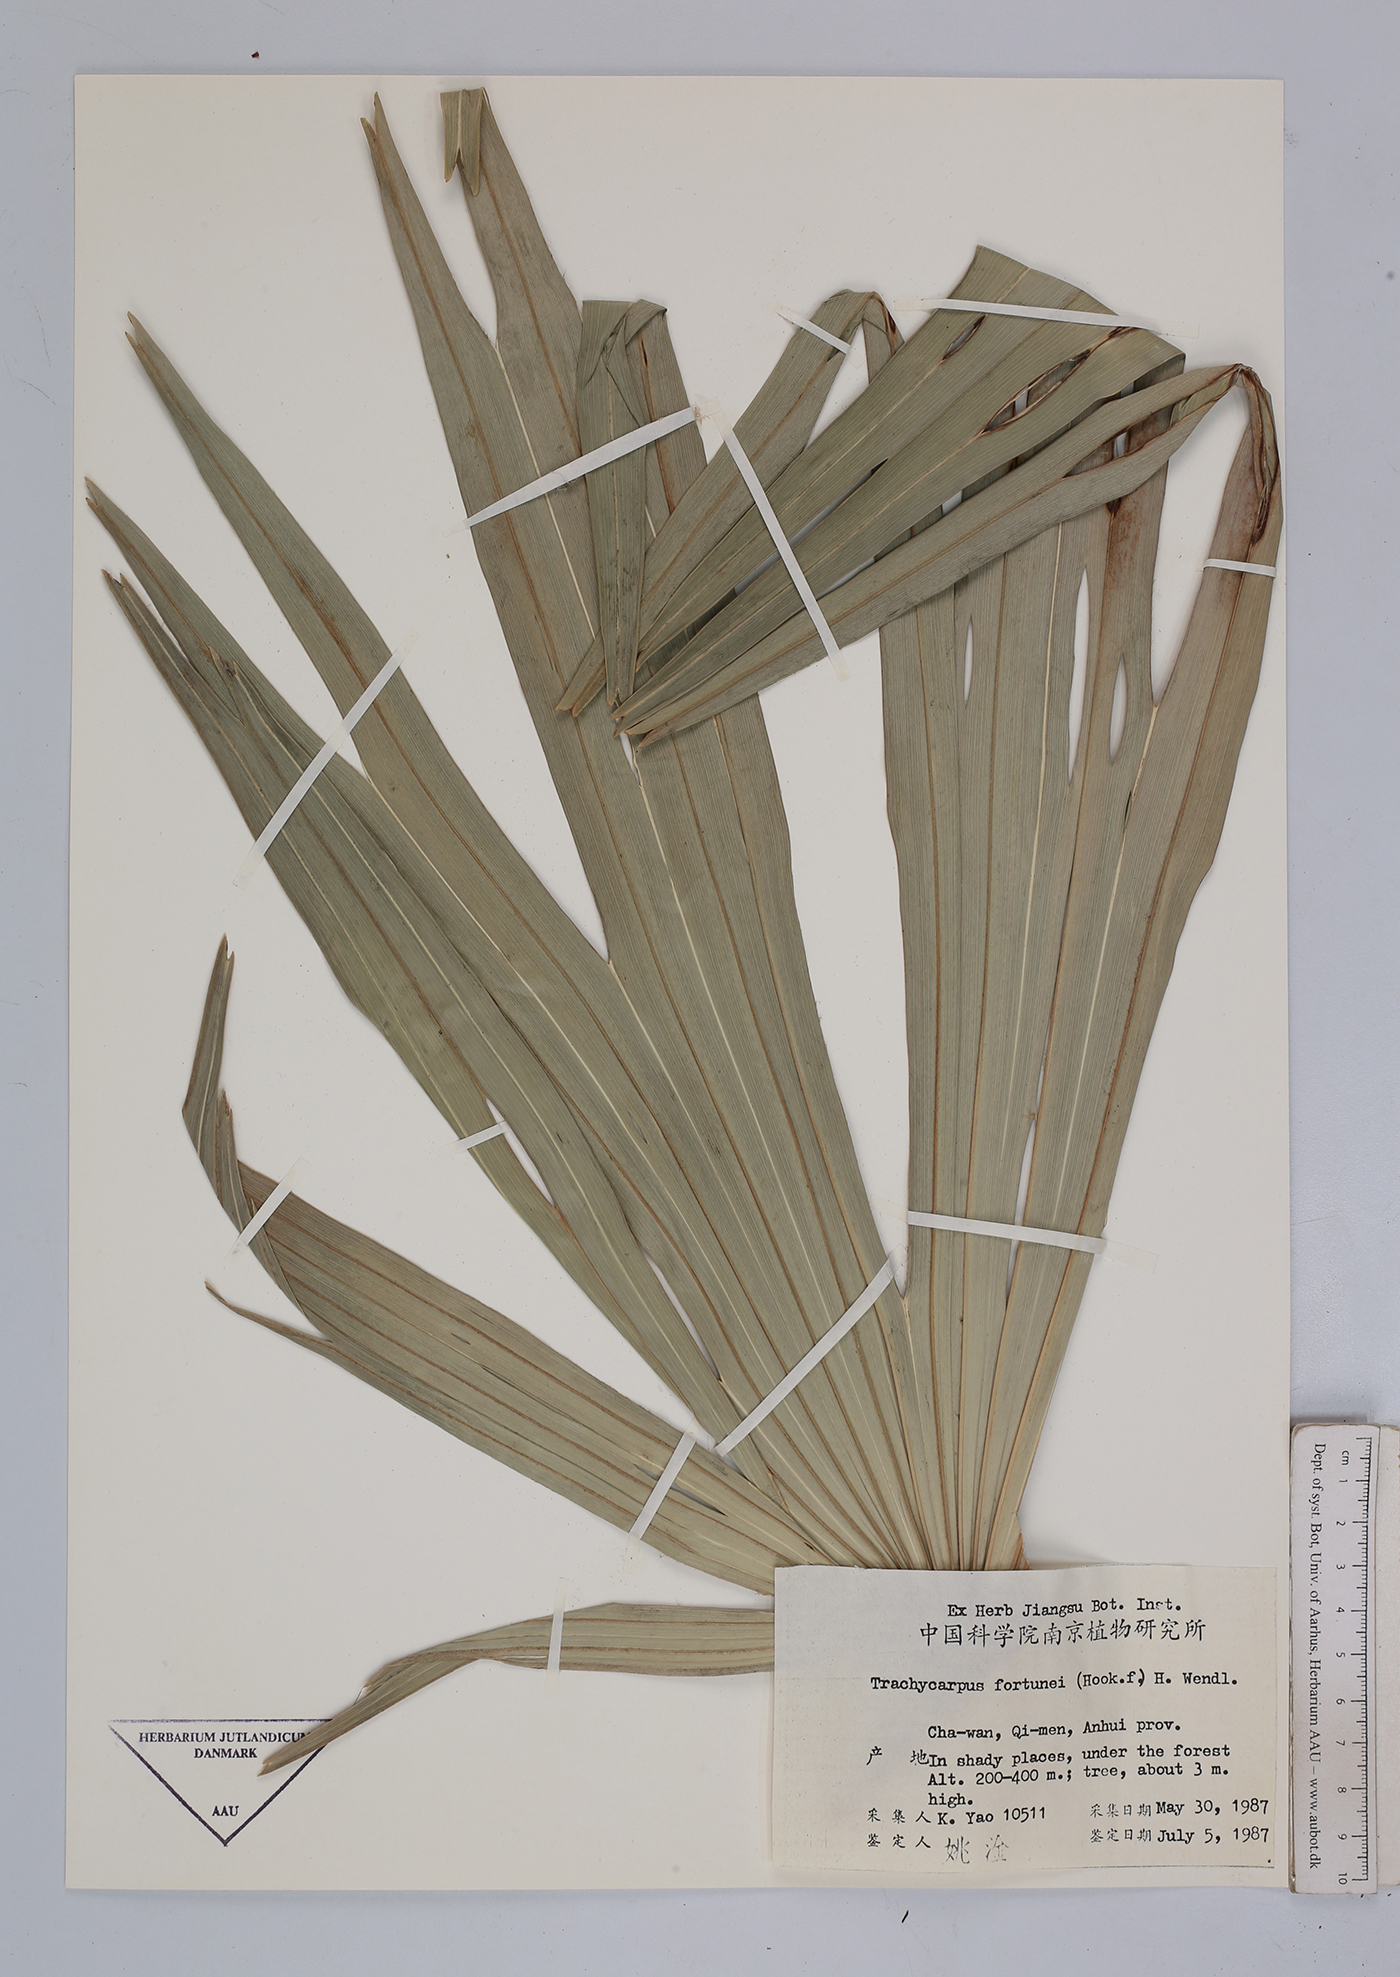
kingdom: Plantae
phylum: Tracheophyta
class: Liliopsida
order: Arecales
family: Arecaceae
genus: Trachycarpus
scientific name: Trachycarpus fortunei
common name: Chusan palm
